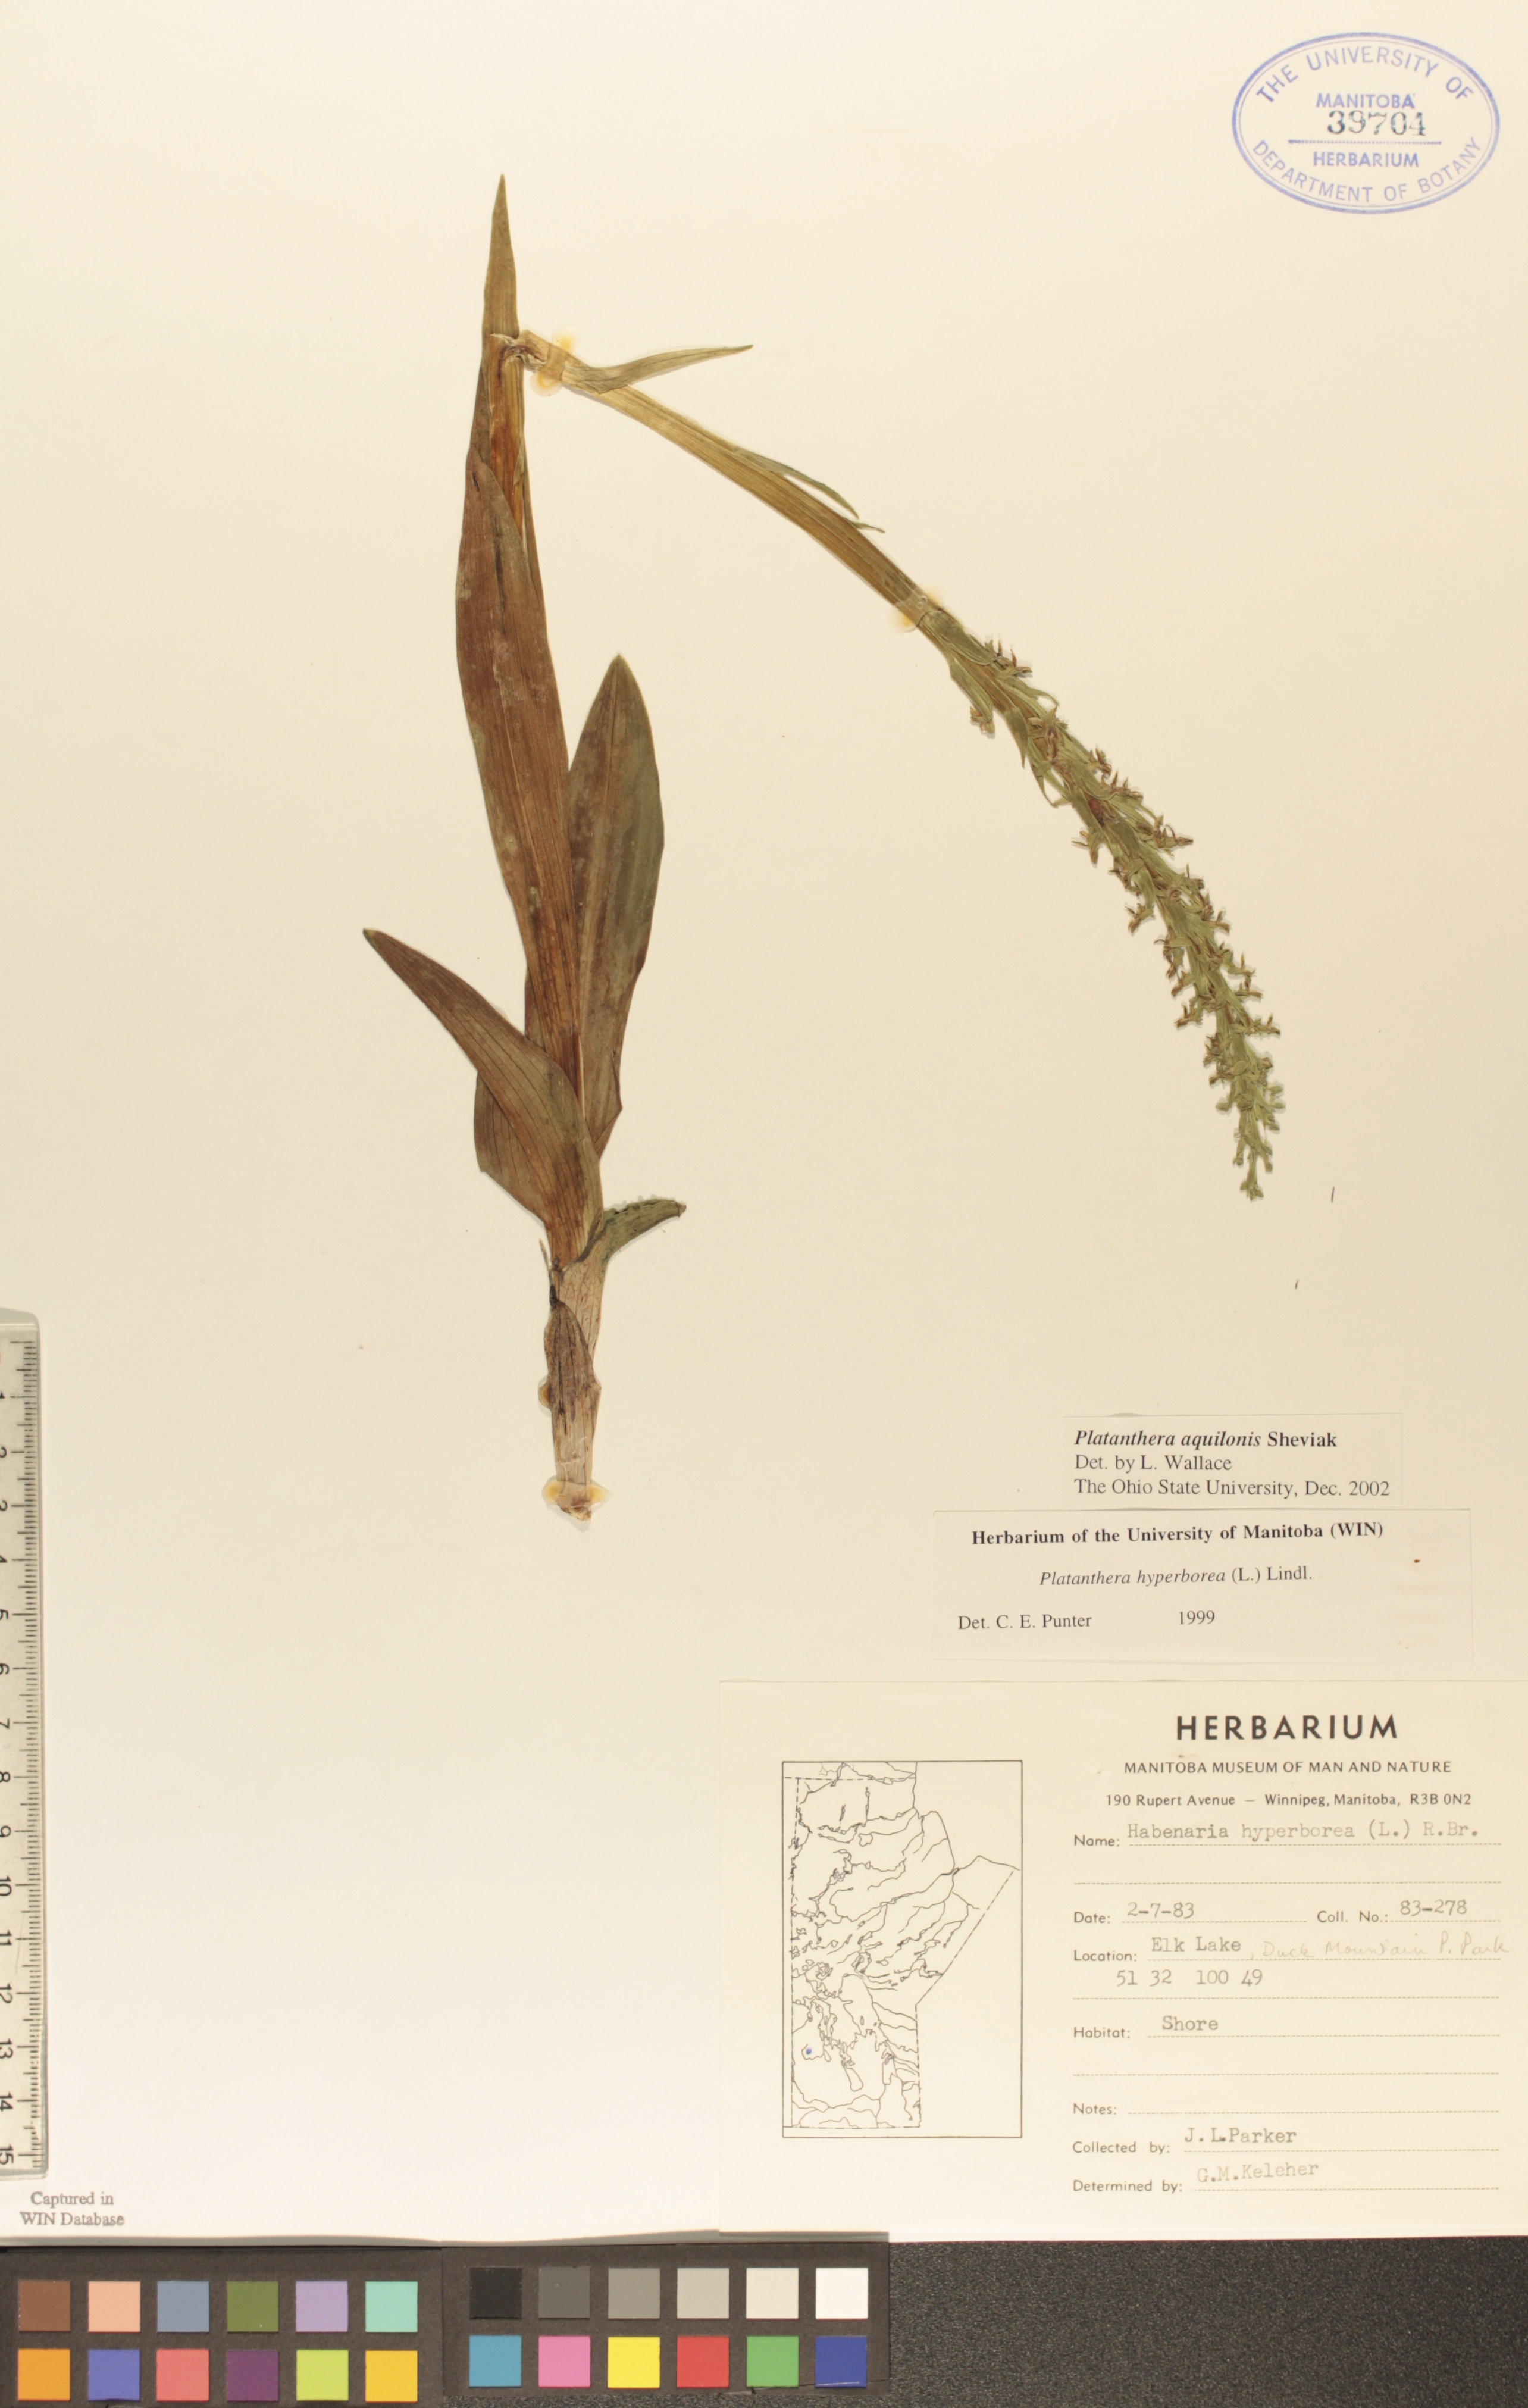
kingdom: Plantae
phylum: Tracheophyta
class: Liliopsida
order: Asparagales
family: Orchidaceae
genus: Platanthera
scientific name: Platanthera aquilonis
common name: Northern green orchid
